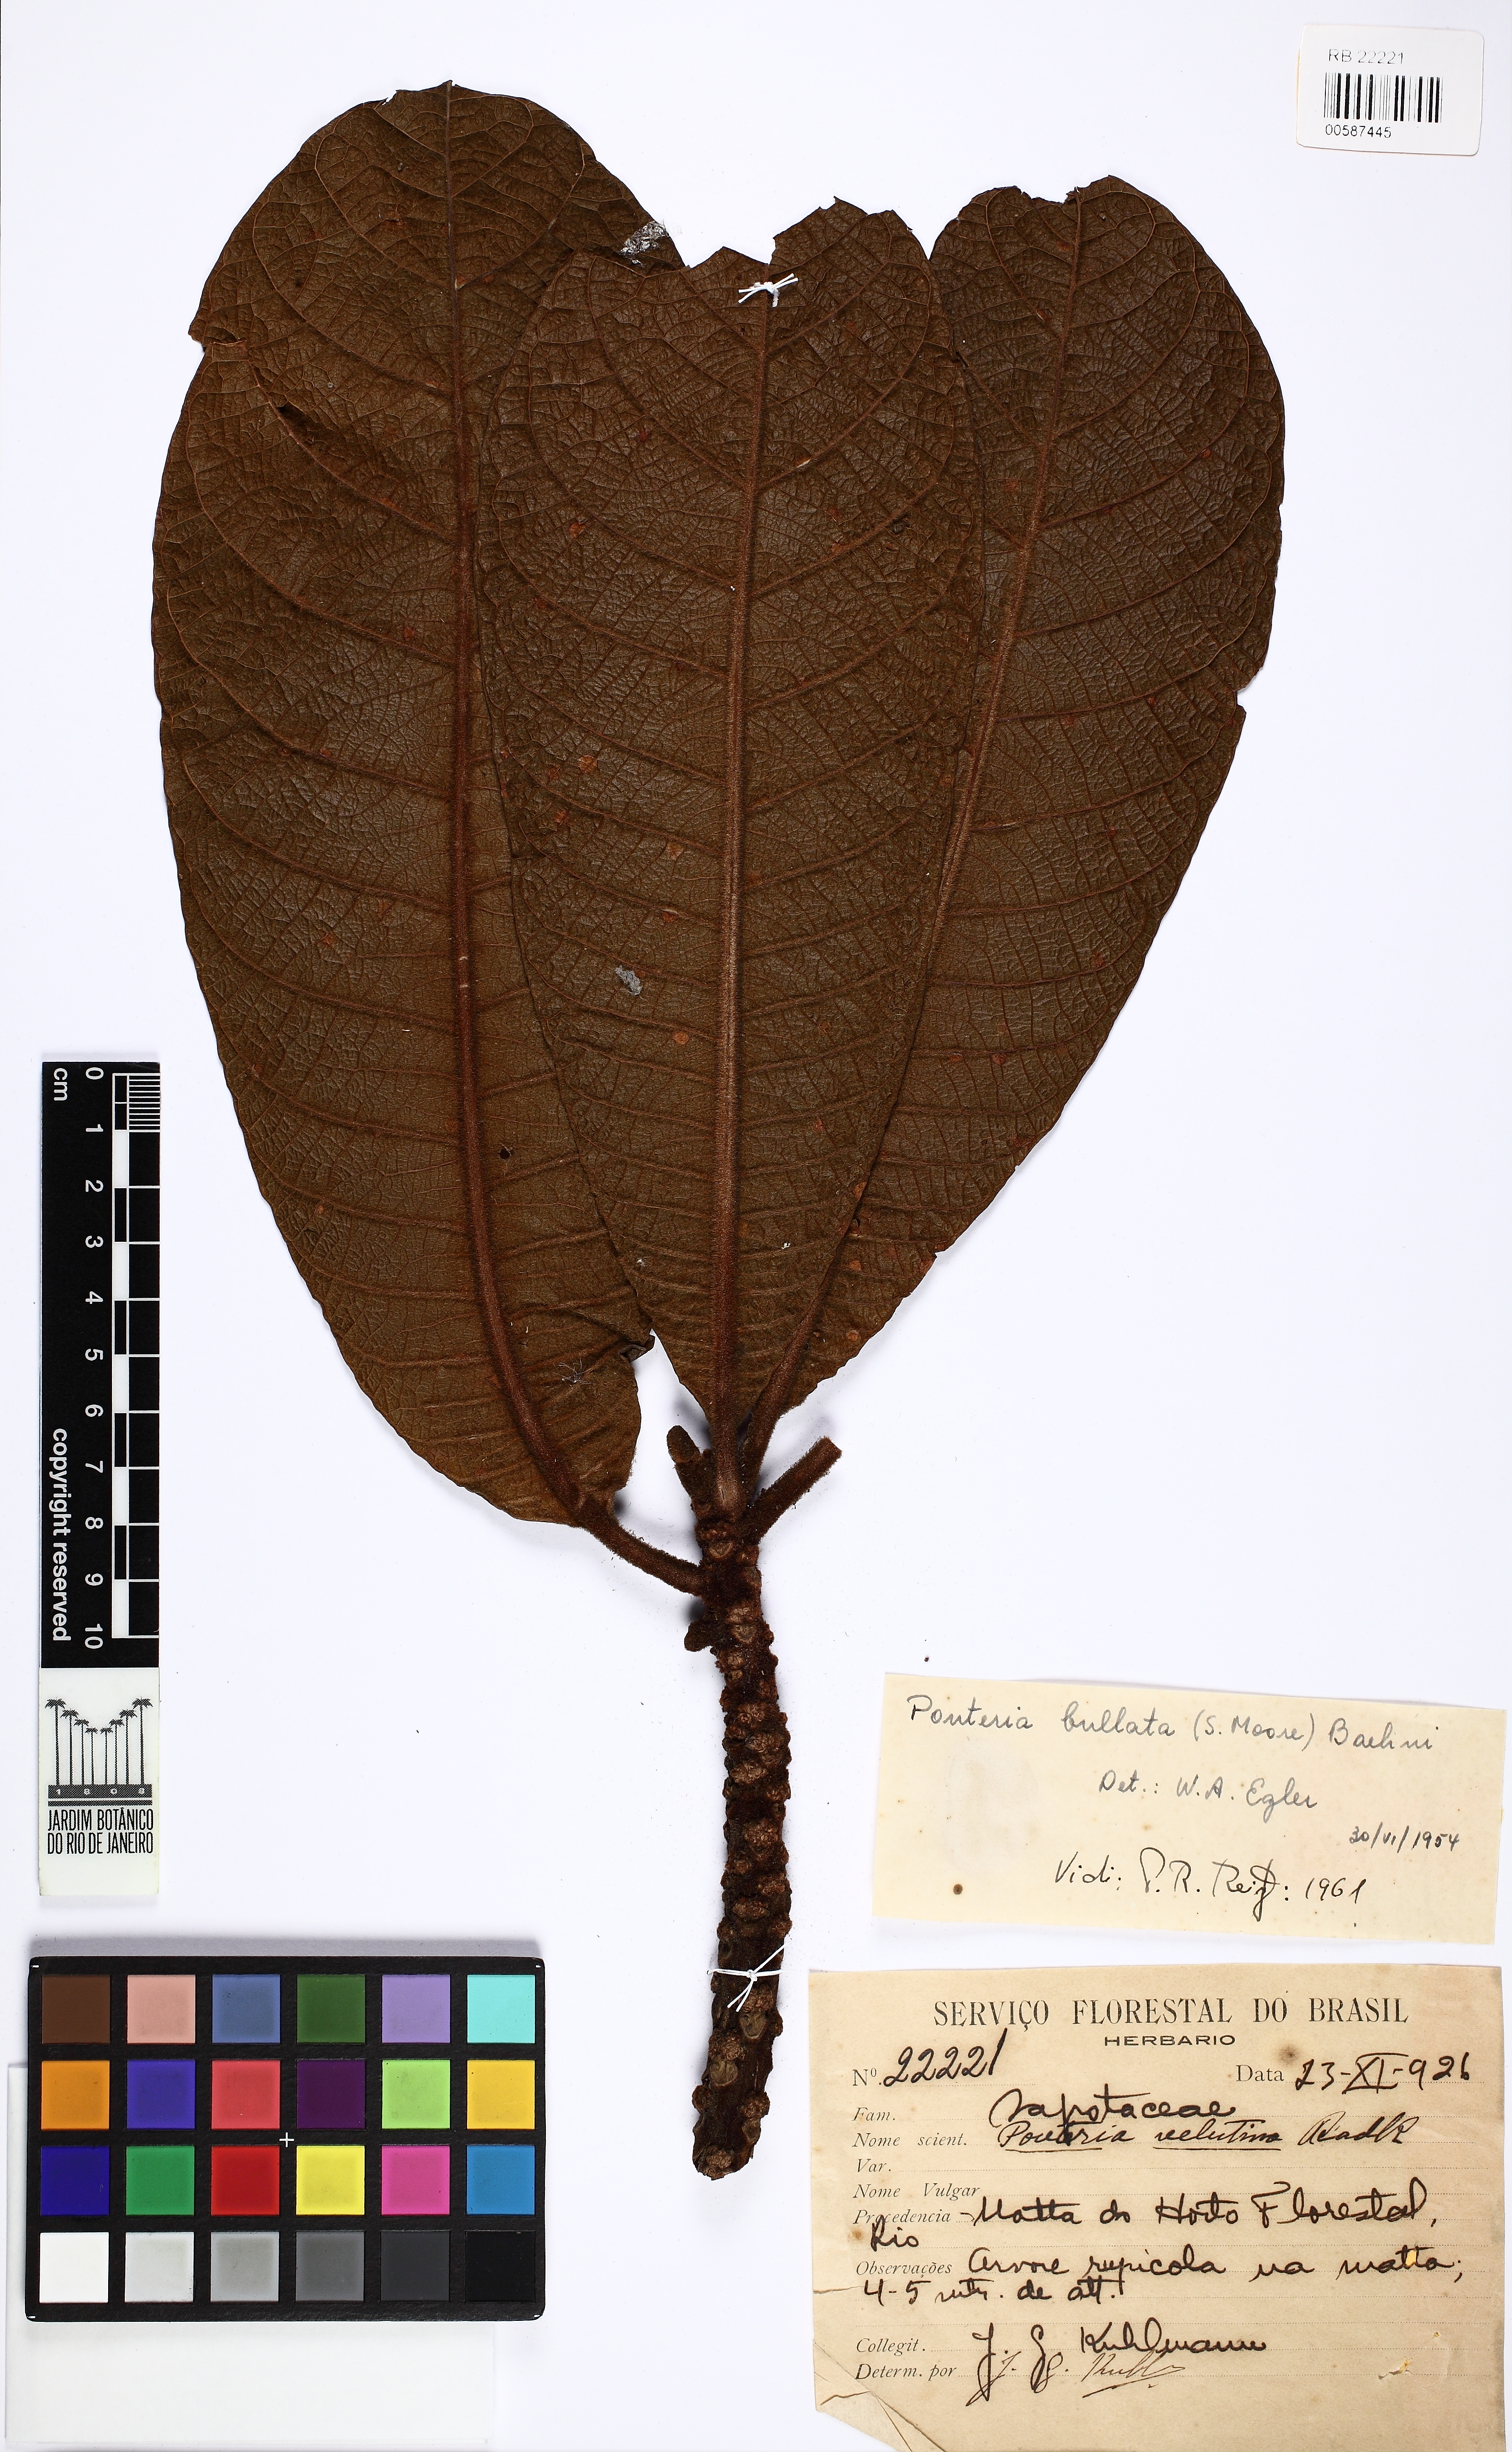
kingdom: Plantae
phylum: Tracheophyta
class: Magnoliopsida
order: Ericales
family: Sapotaceae
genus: Pouteria
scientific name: Pouteria bullata
